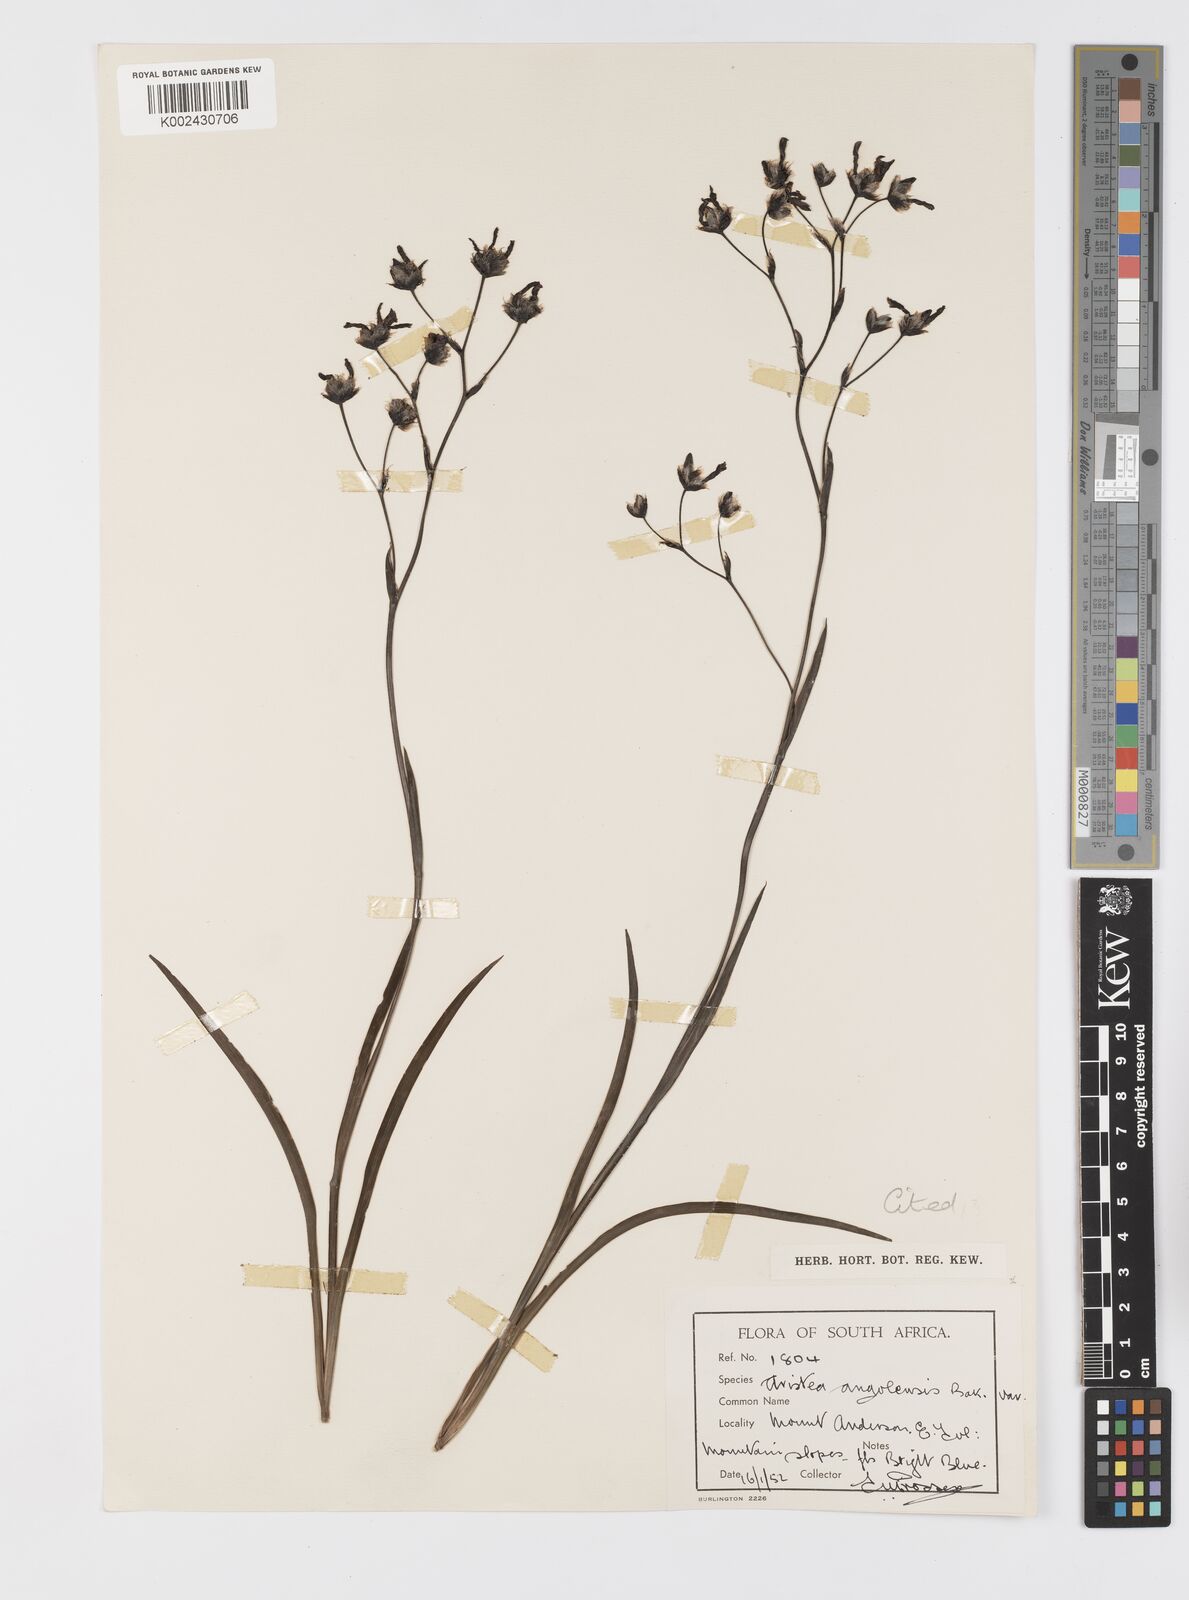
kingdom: Plantae
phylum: Tracheophyta
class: Liliopsida
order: Asparagales
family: Iridaceae
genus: Aristea
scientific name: Aristea angolensis
